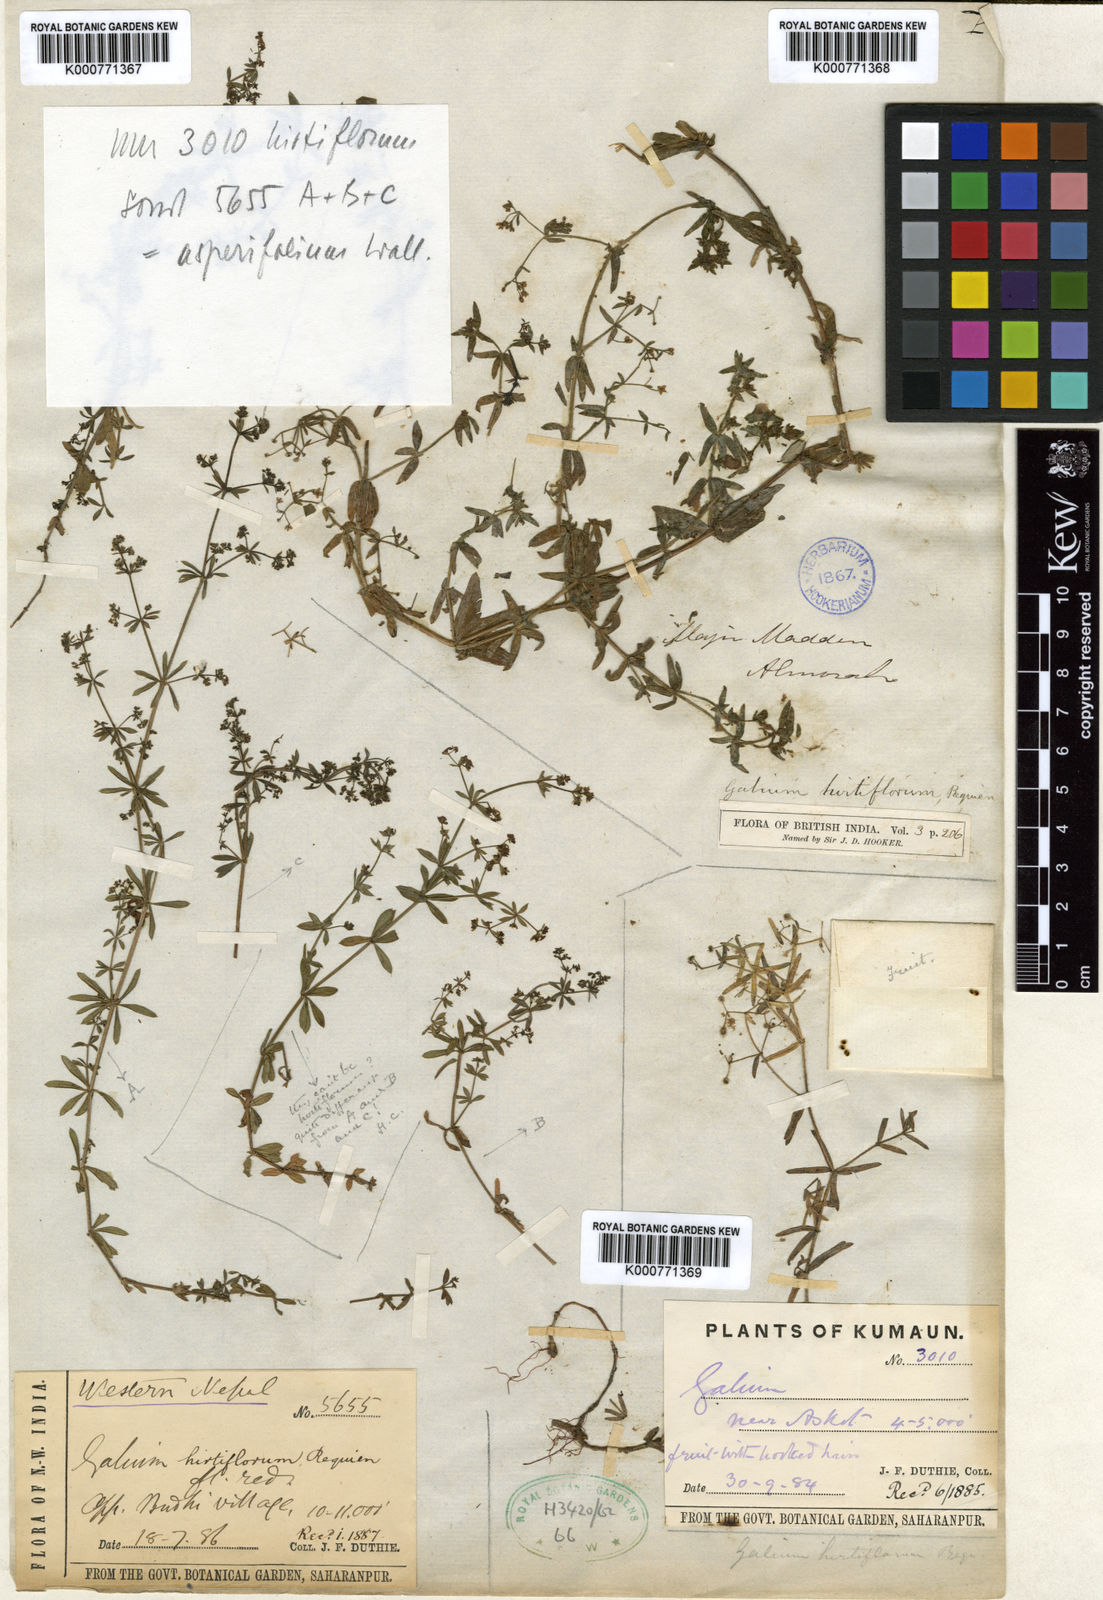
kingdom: Plantae
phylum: Tracheophyta
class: Magnoliopsida
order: Gentianales
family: Rubiaceae
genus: Galium
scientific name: Galium asperifolium
